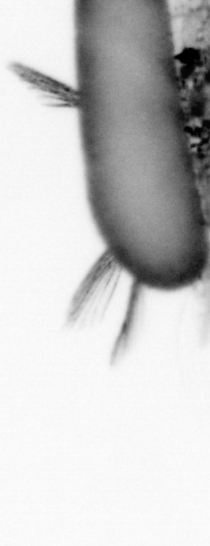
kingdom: Animalia
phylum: Annelida
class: Polychaeta
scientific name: Polychaeta
